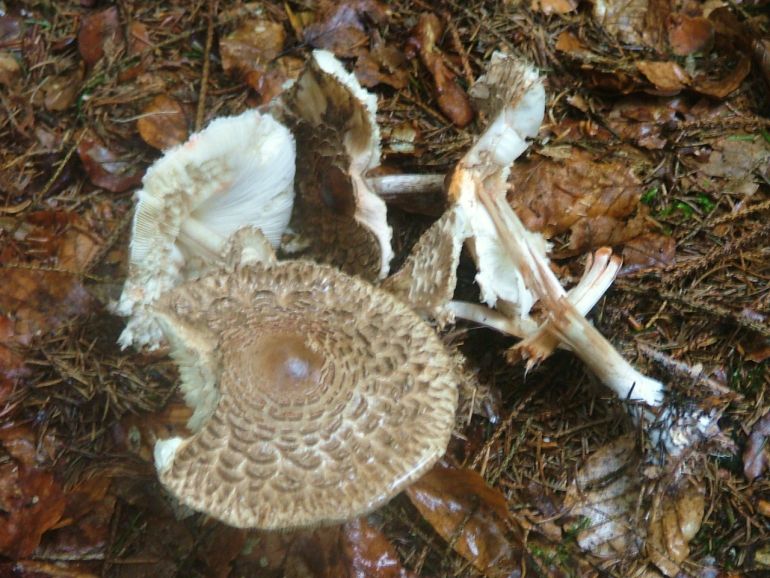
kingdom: Fungi
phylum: Basidiomycota
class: Agaricomycetes
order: Agaricales
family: Agaricaceae
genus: Chlorophyllum
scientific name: Chlorophyllum olivieri
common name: almindelig rabarberhat
